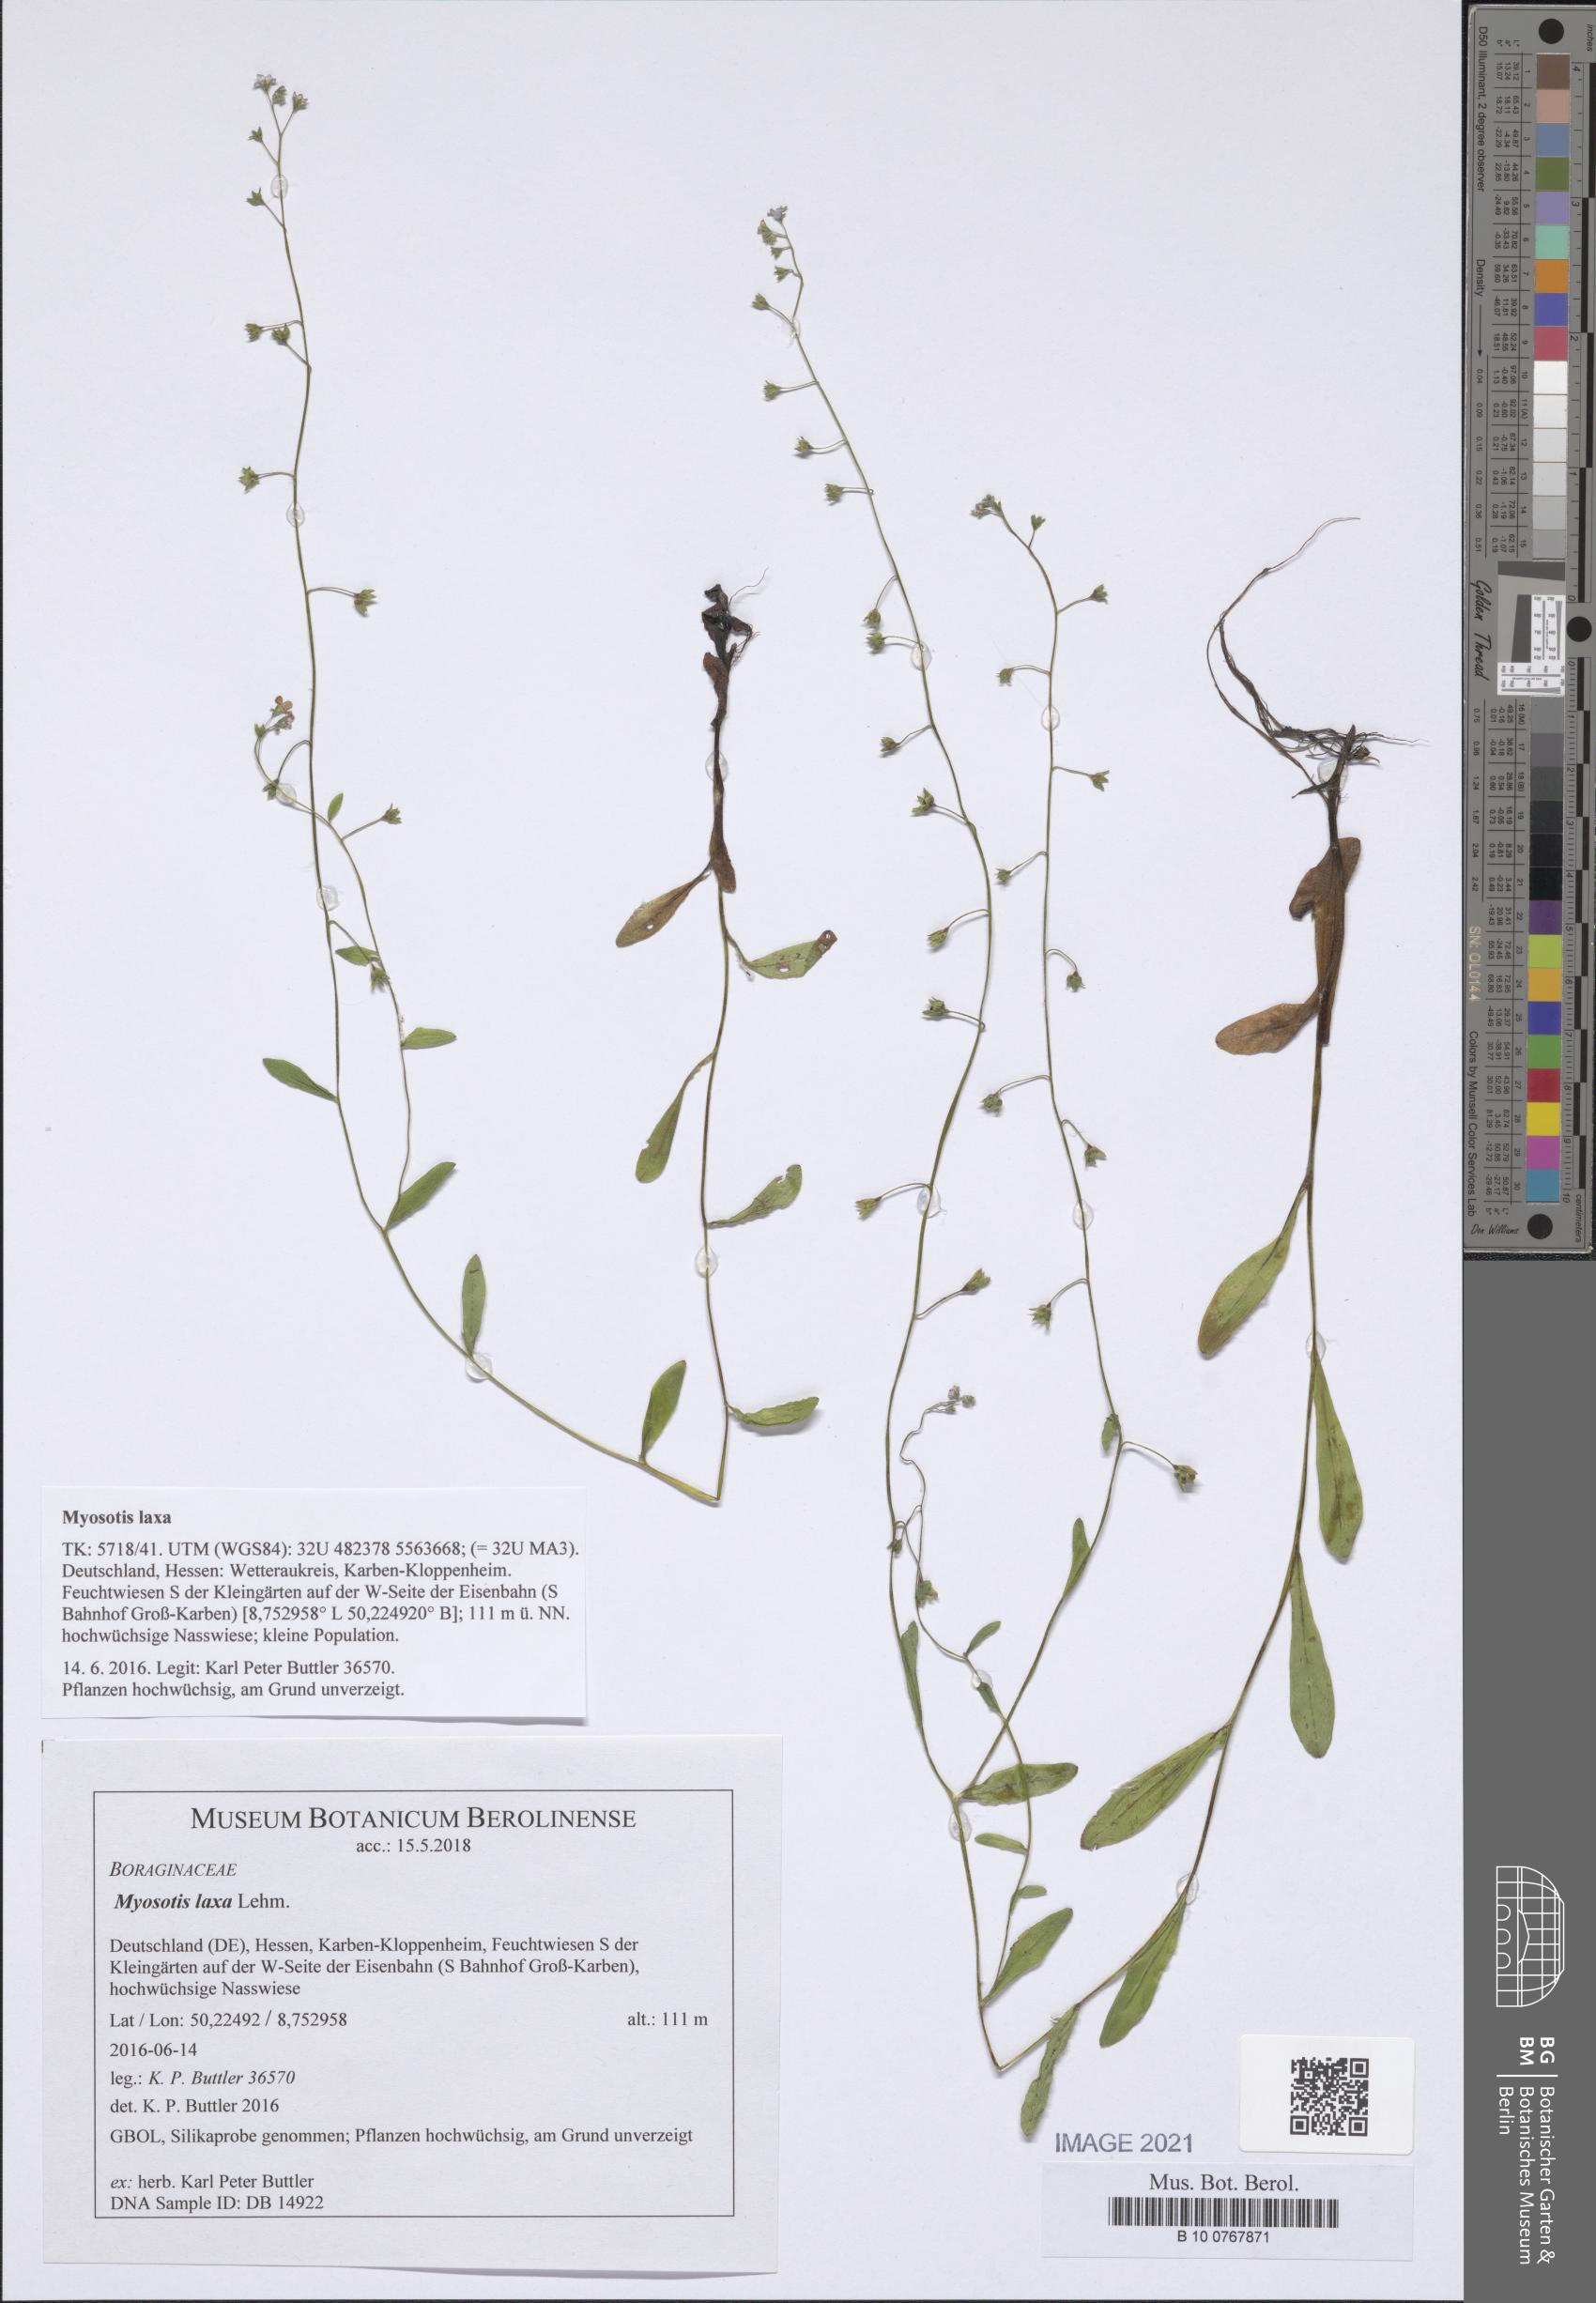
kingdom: Plantae
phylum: Tracheophyta
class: Magnoliopsida
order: Boraginales
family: Boraginaceae
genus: Myosotis
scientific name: Myosotis laxa
